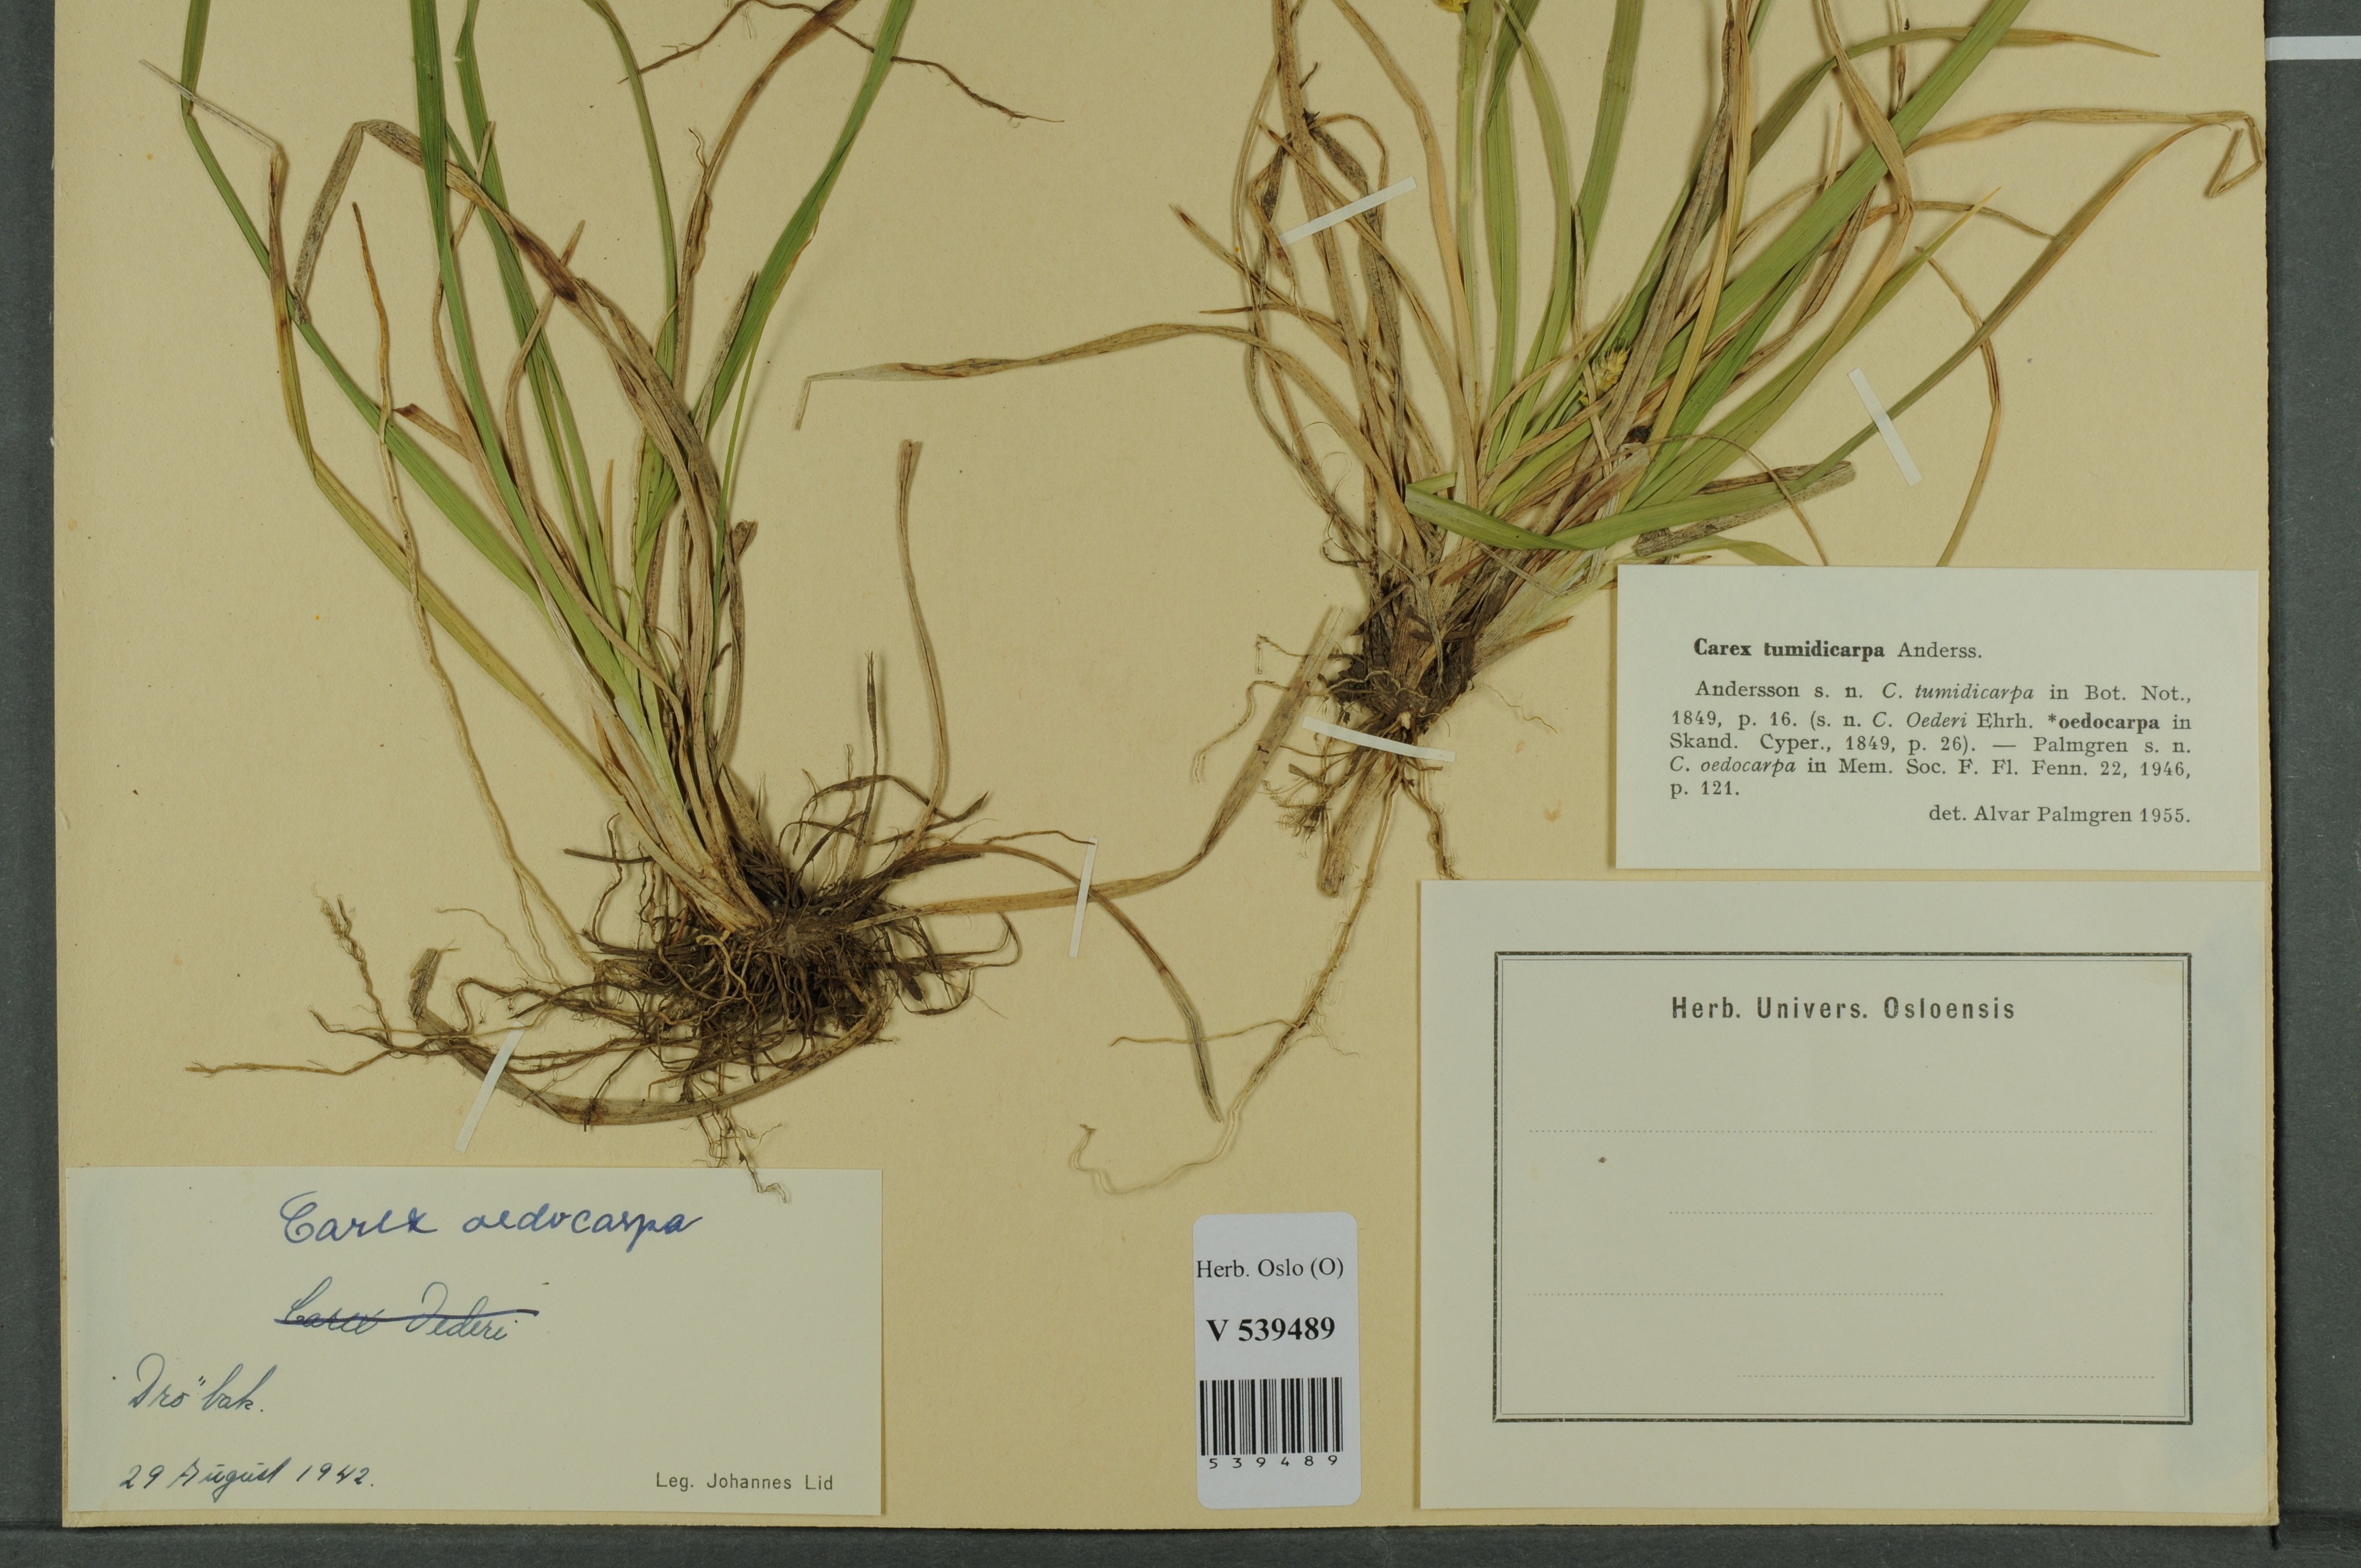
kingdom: Plantae
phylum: Tracheophyta
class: Liliopsida
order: Poales
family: Cyperaceae
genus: Carex
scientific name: Carex demissa
